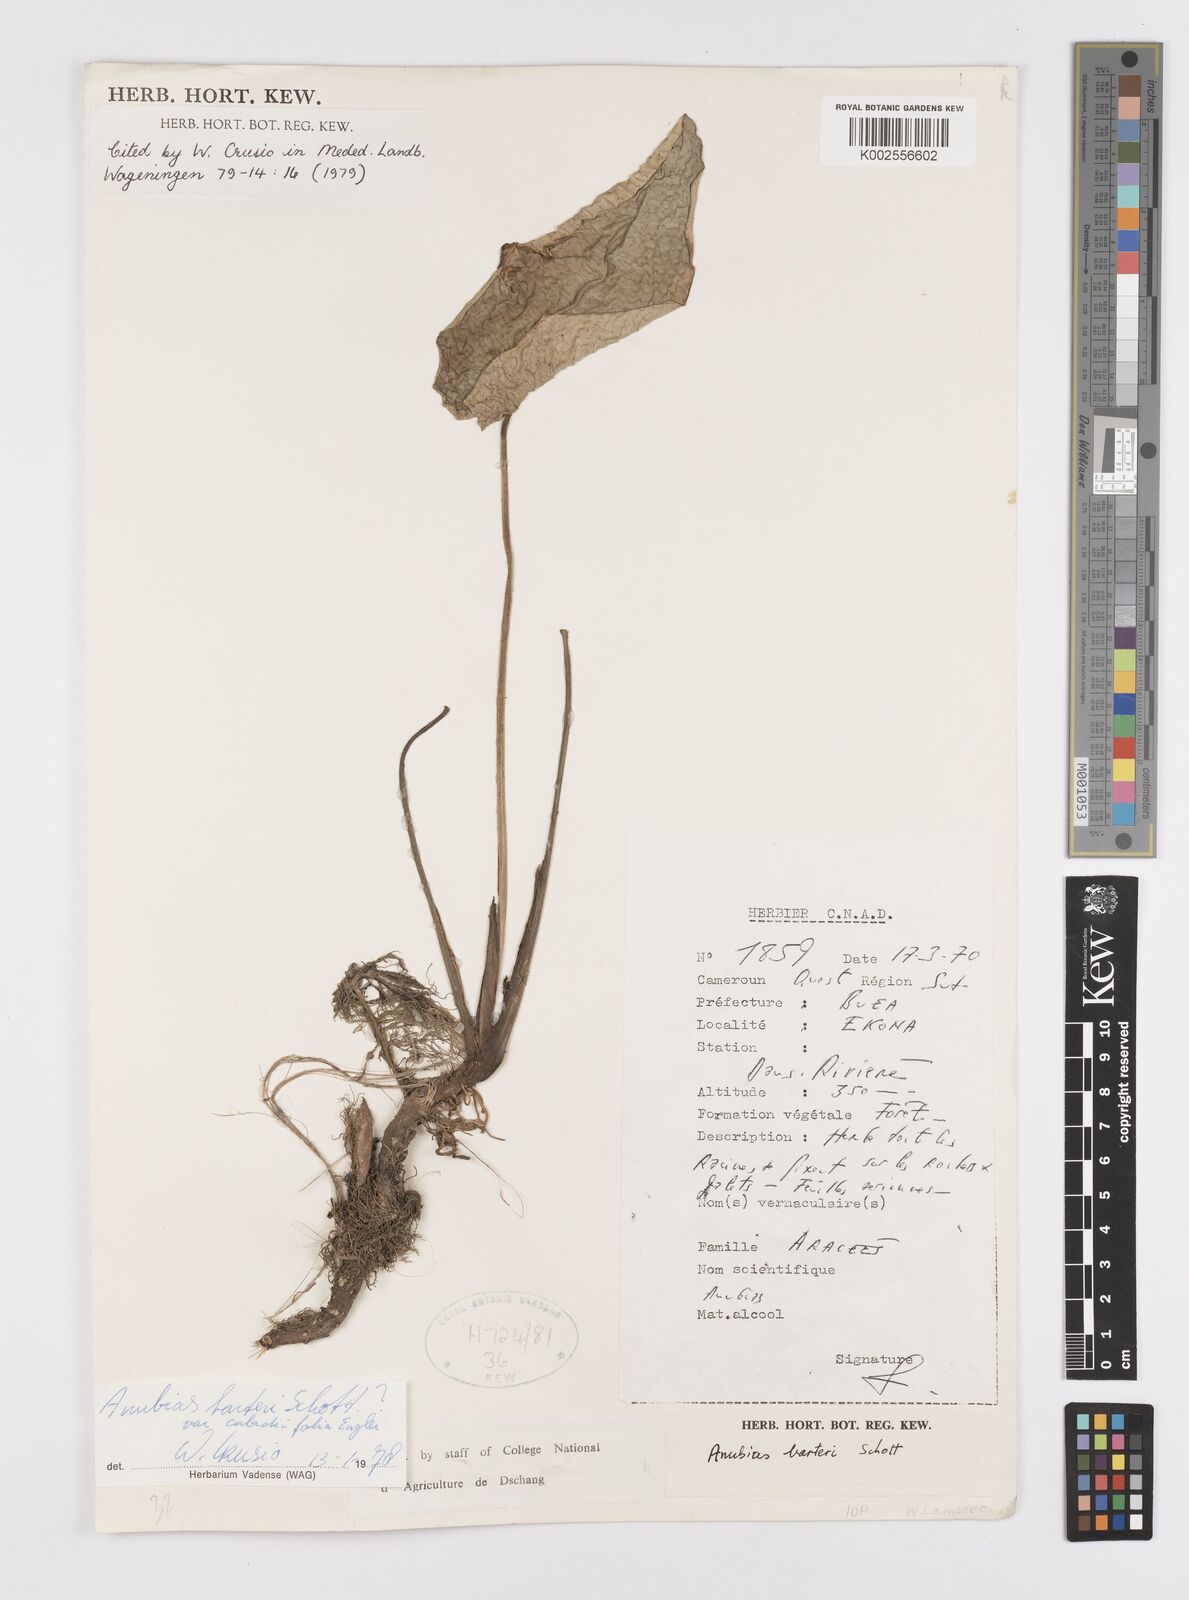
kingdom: Plantae
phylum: Tracheophyta
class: Liliopsida
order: Alismatales
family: Araceae
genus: Anubias
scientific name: Anubias barteri
